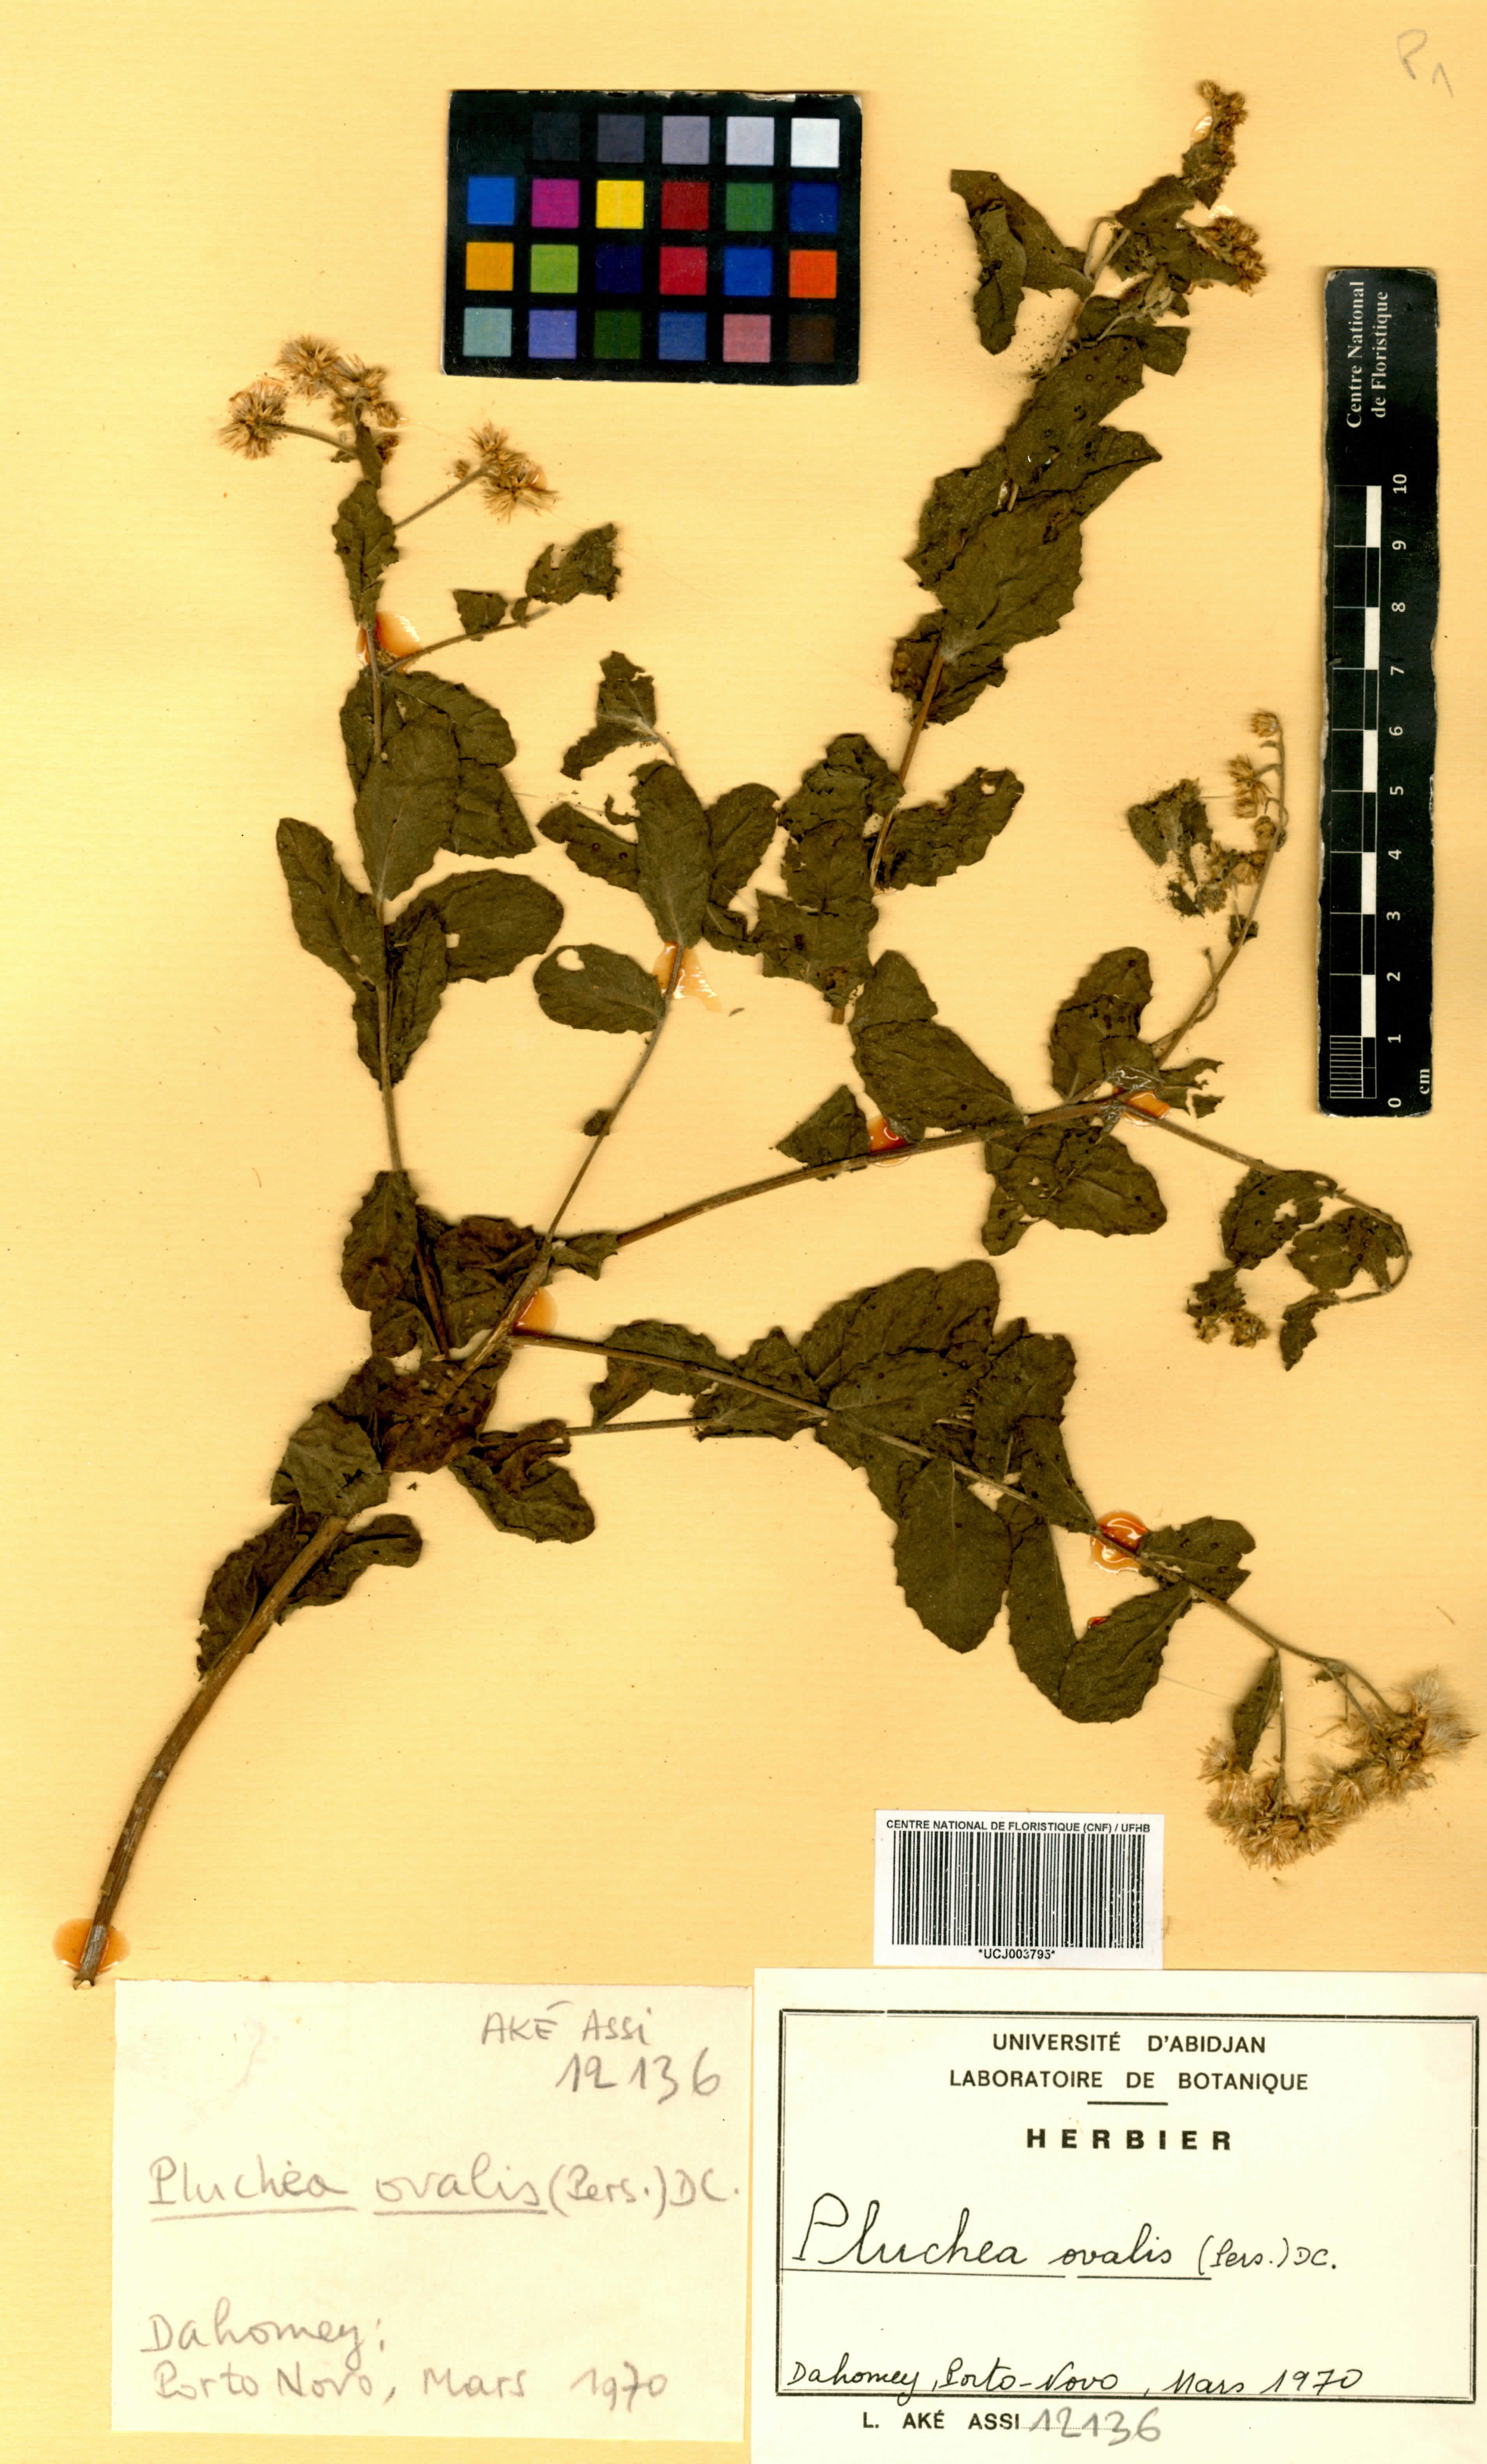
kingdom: Plantae
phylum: Tracheophyta
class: Magnoliopsida
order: Asterales
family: Asteraceae
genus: Pluchea
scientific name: Pluchea ovalis
